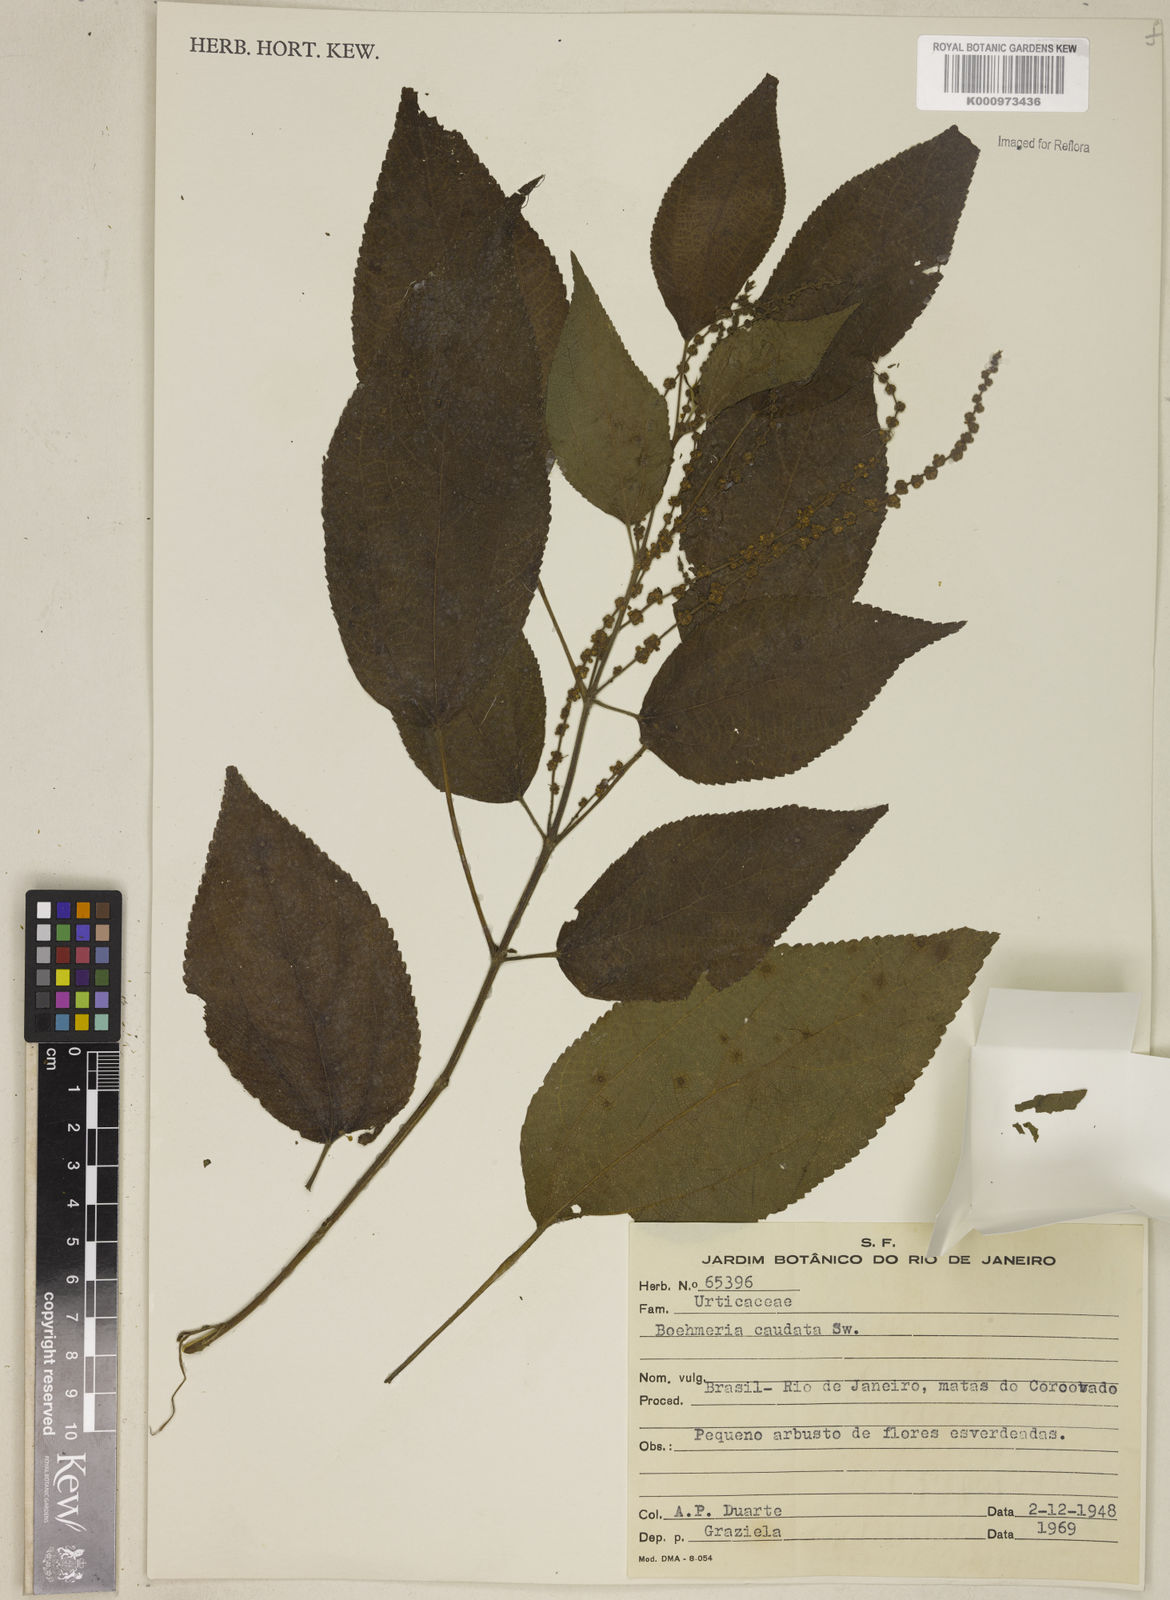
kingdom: Plantae
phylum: Tracheophyta
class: Magnoliopsida
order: Rosales
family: Urticaceae
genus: Boehmeria
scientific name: Boehmeria caudata
